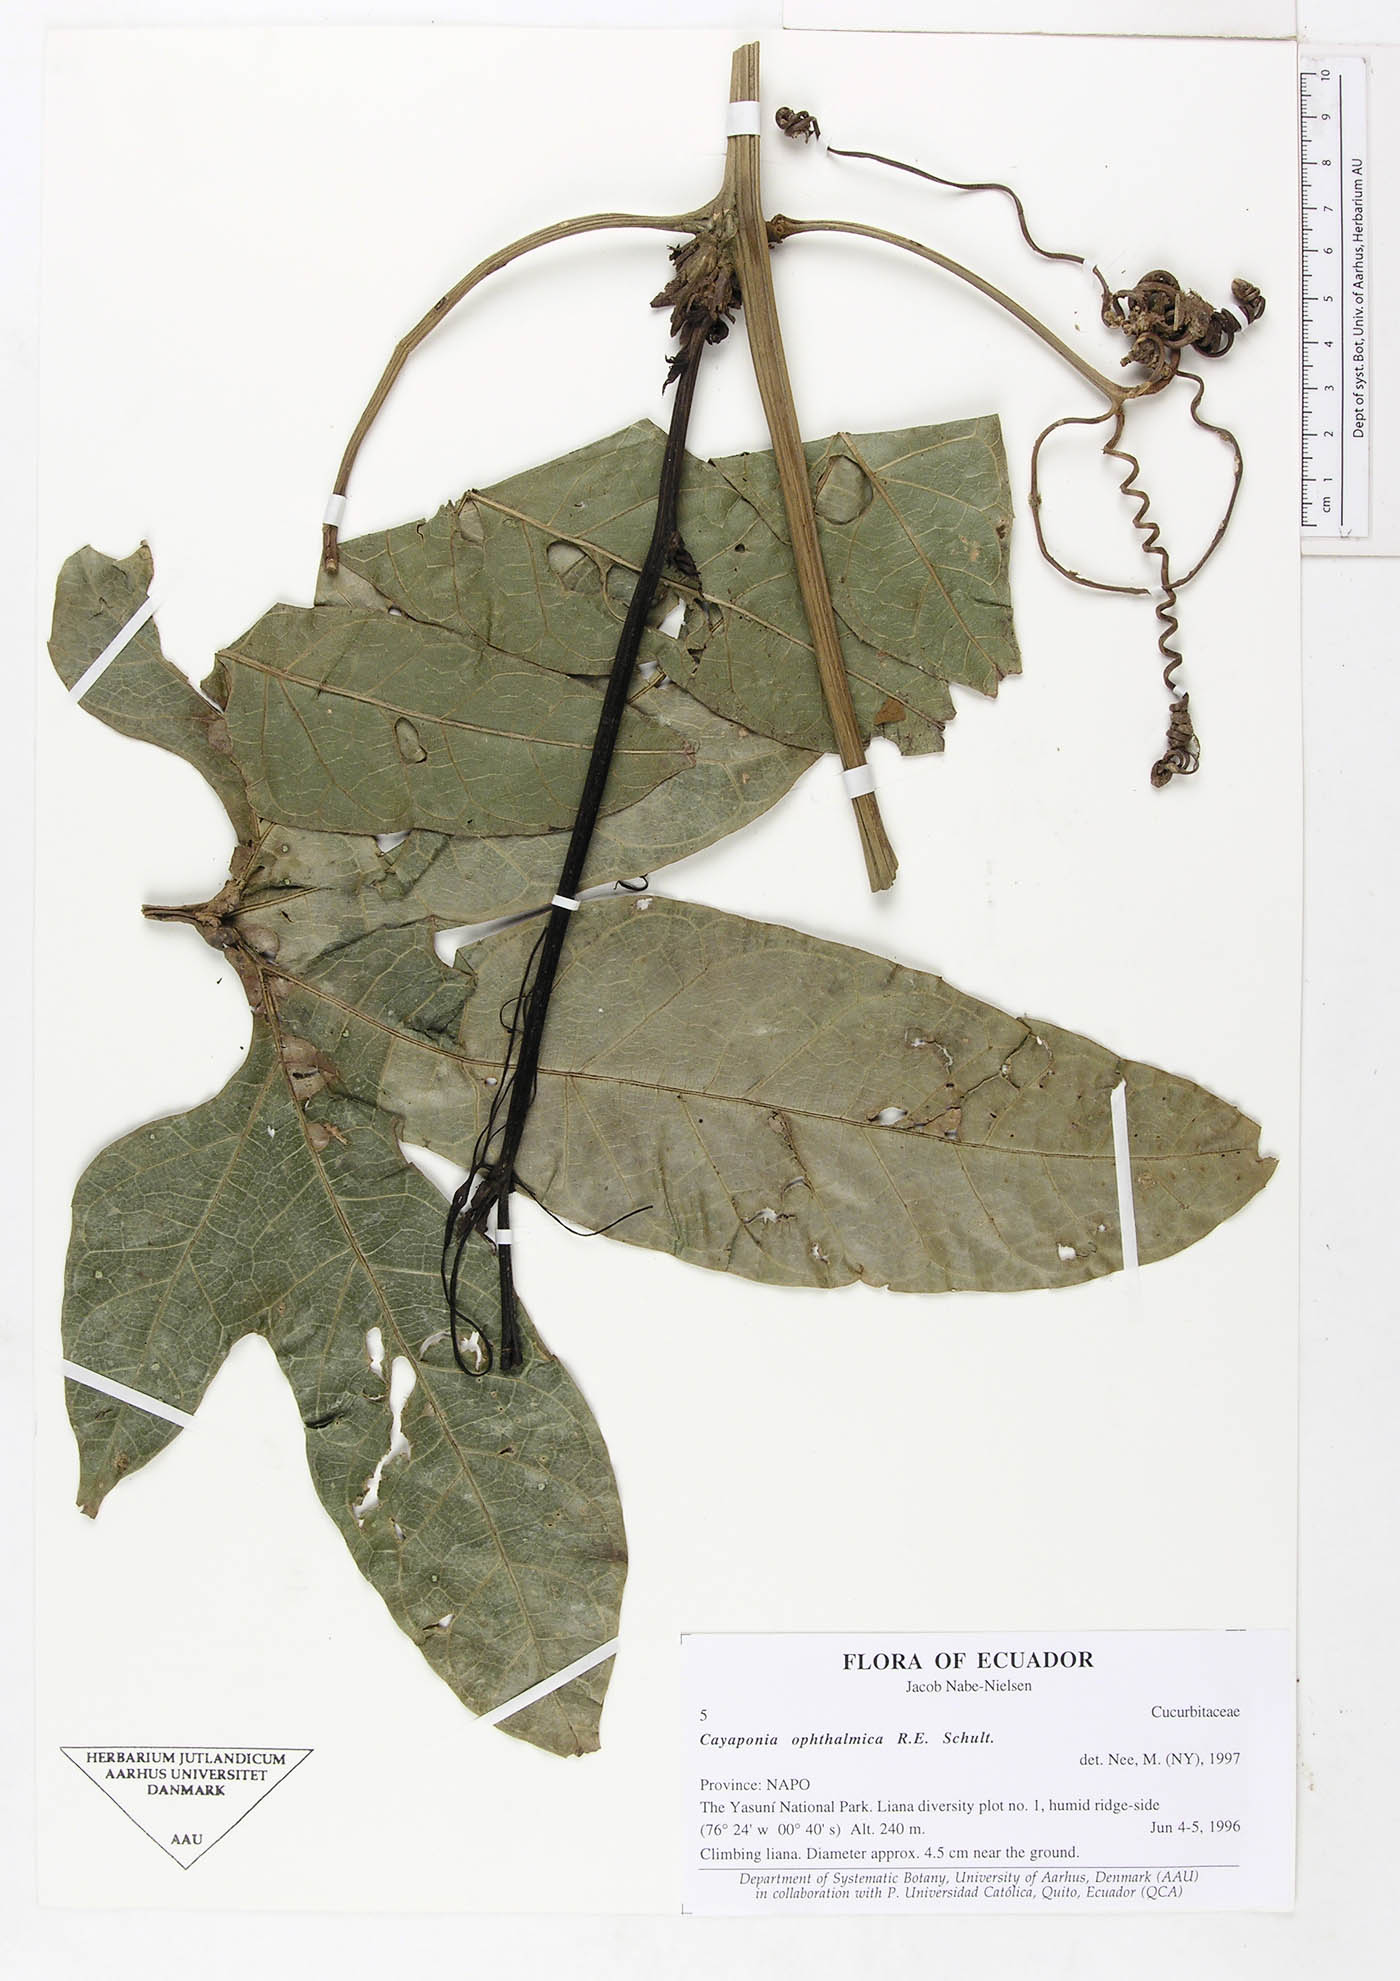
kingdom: Plantae
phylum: Tracheophyta
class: Magnoliopsida
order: Cucurbitales
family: Cucurbitaceae
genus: Cayaponia
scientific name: Cayaponia ophthalmica
